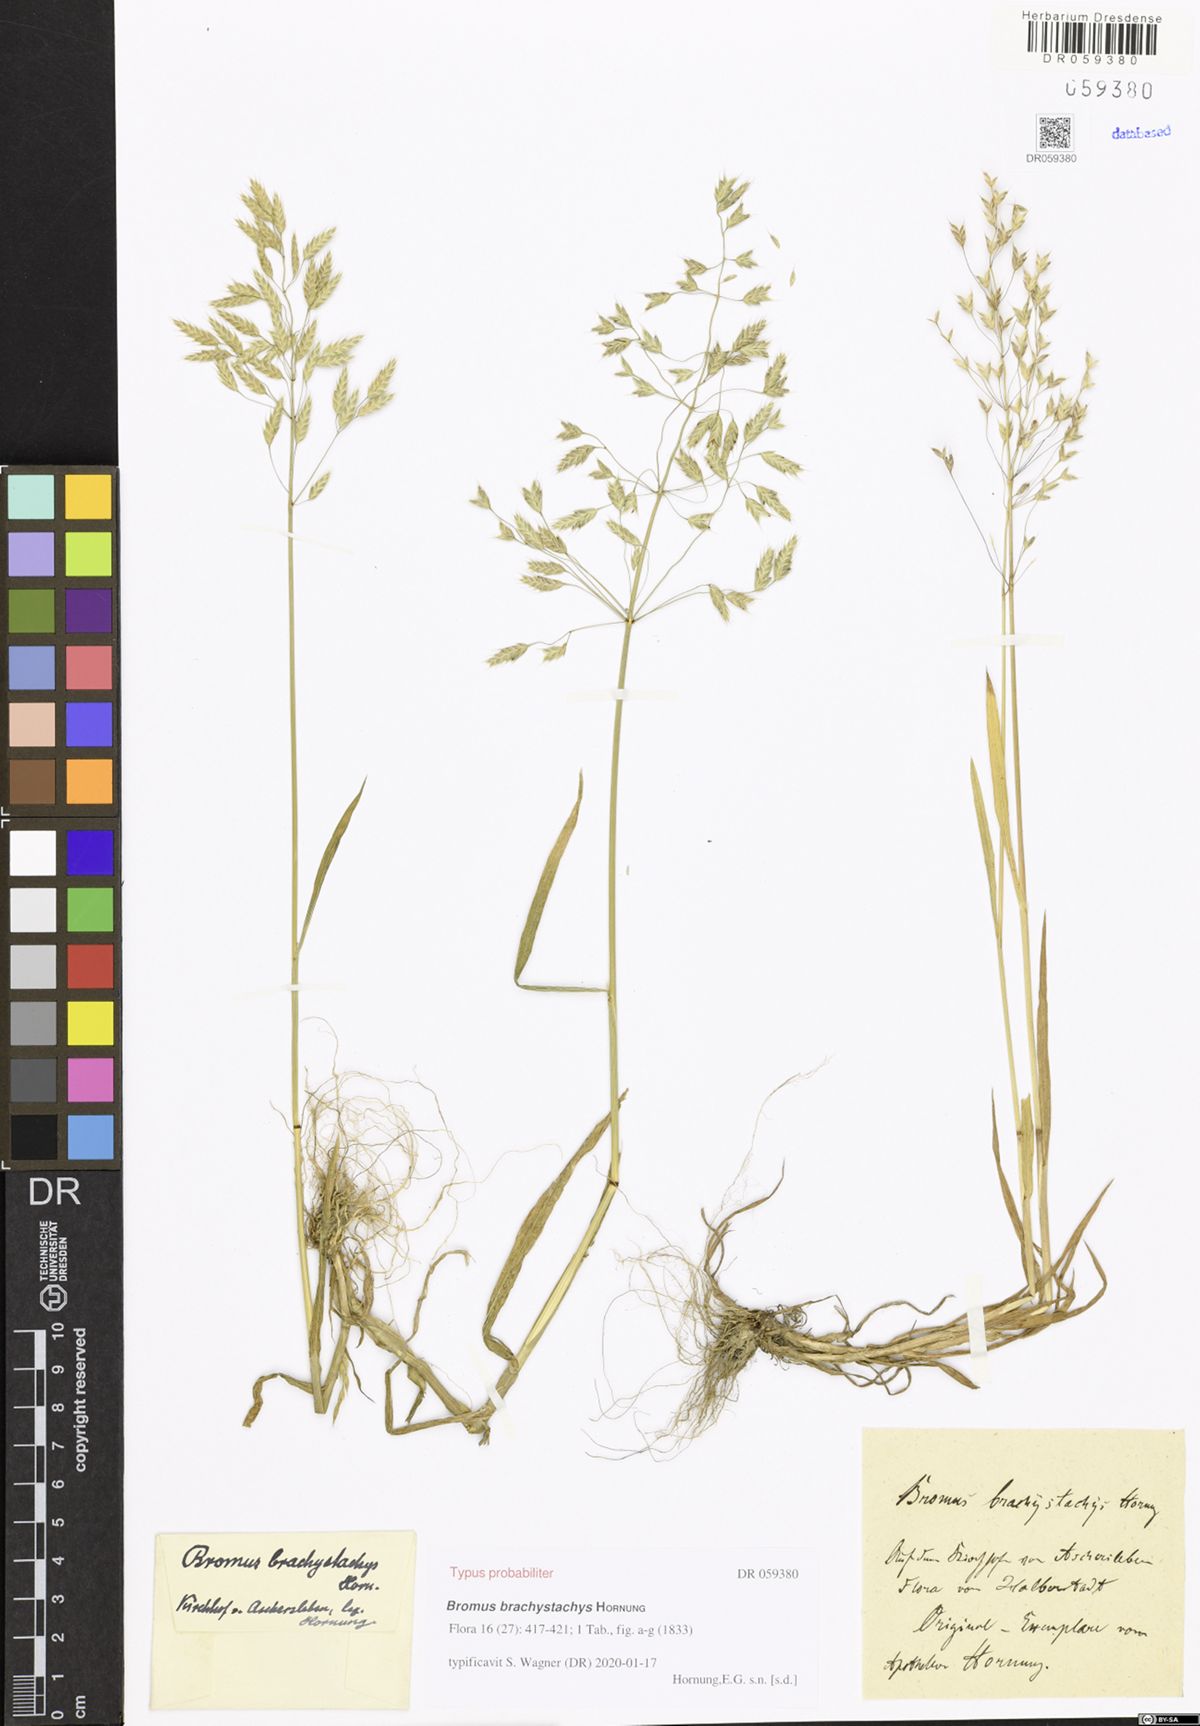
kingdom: Plantae
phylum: Tracheophyta
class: Liliopsida
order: Poales
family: Poaceae
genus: Bromus
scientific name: Bromus brachystachys
